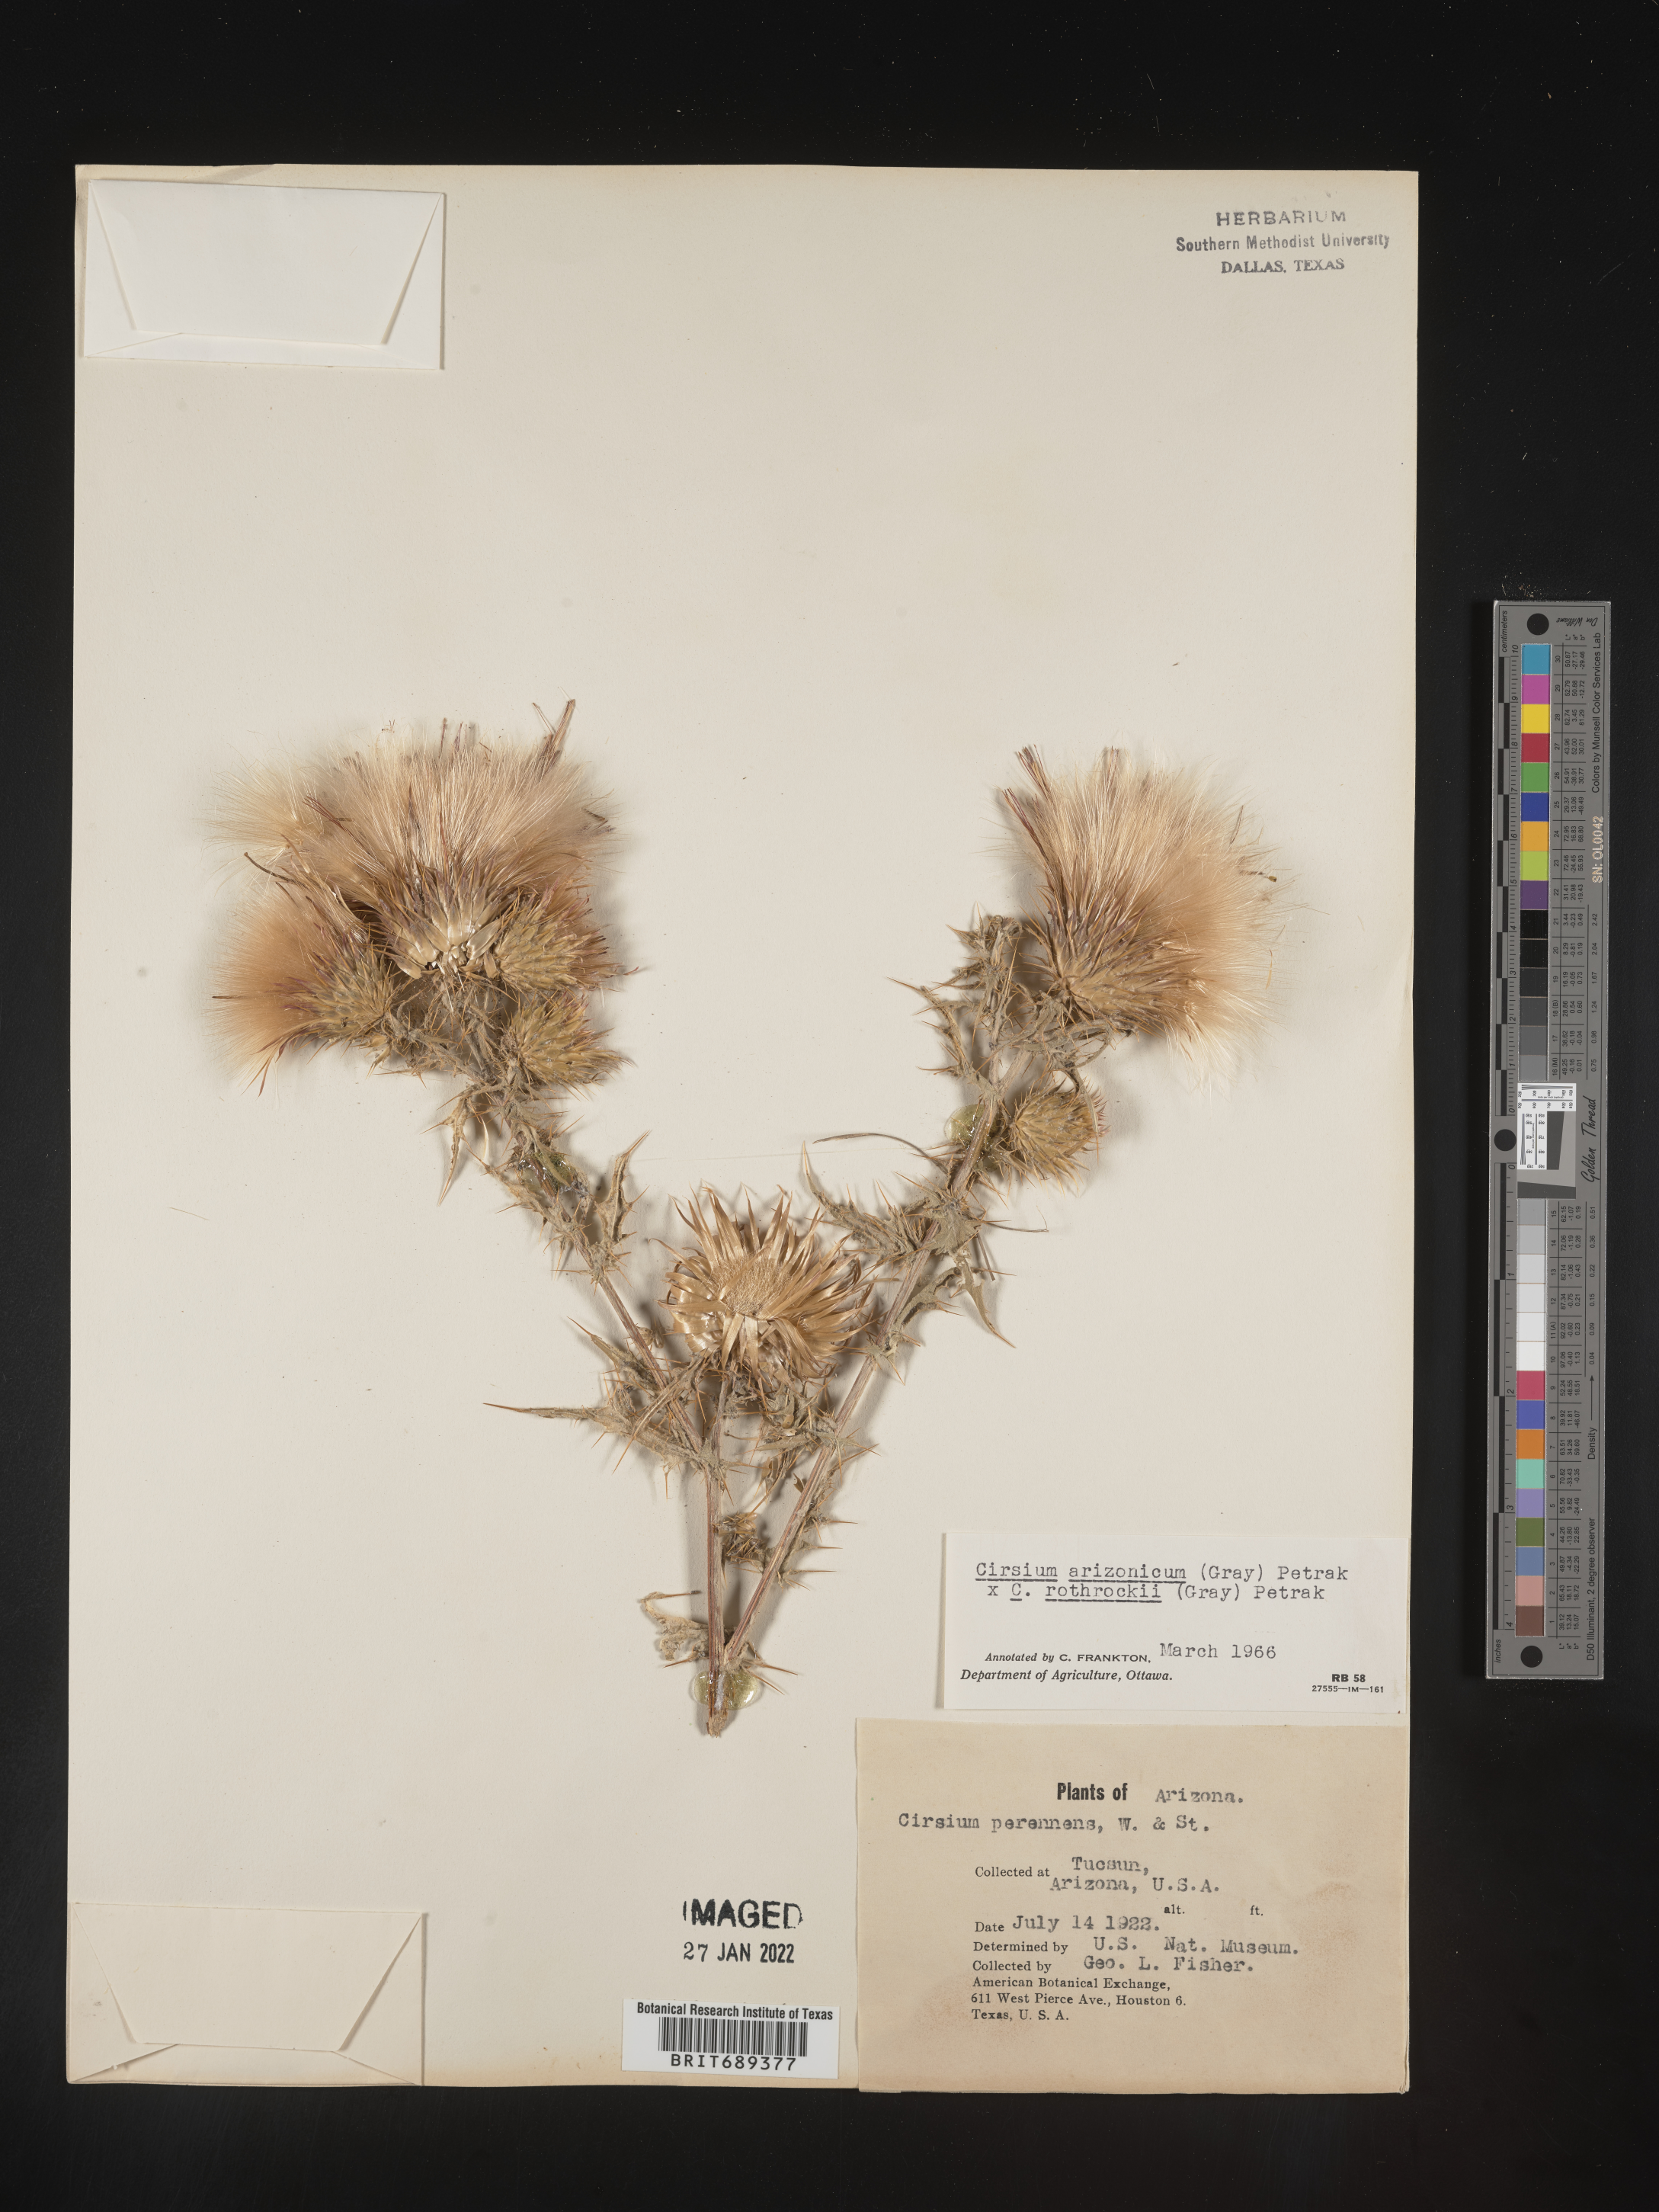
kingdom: Plantae
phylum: Tracheophyta
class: Magnoliopsida
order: Asterales
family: Asteraceae
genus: Cirsium
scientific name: Cirsium arizonicum
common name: Arizona thistle
